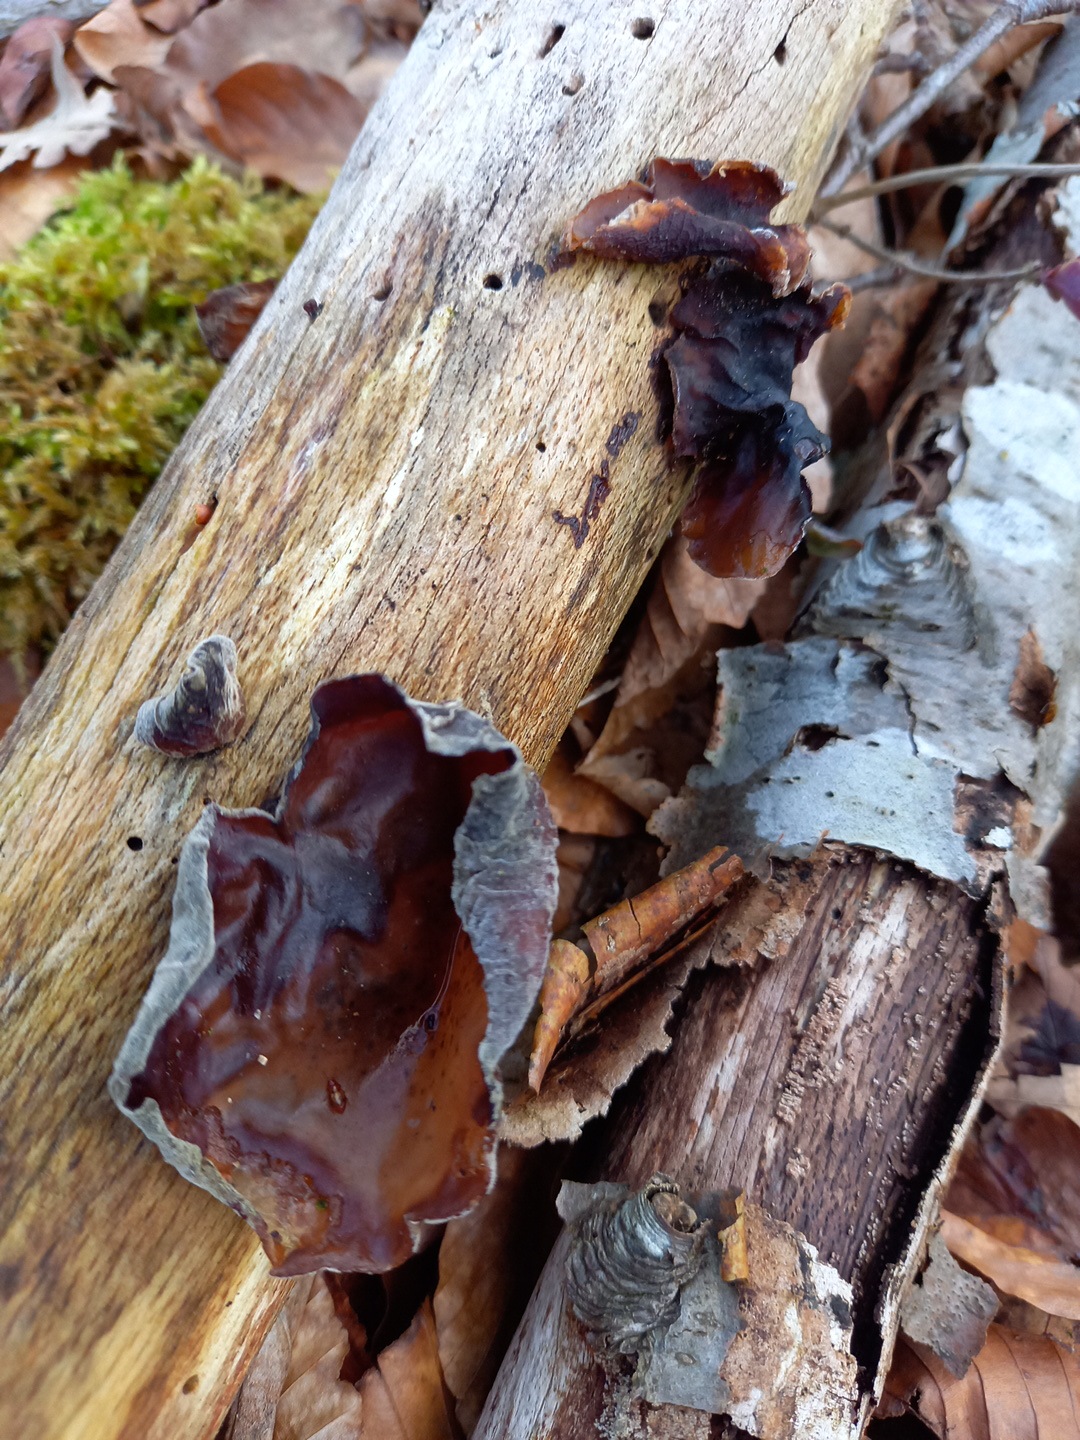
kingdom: Fungi
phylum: Basidiomycota
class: Agaricomycetes
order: Auriculariales
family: Auriculariaceae
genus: Auricularia
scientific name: Auricularia auricula-judae
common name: almindelig judasøre
